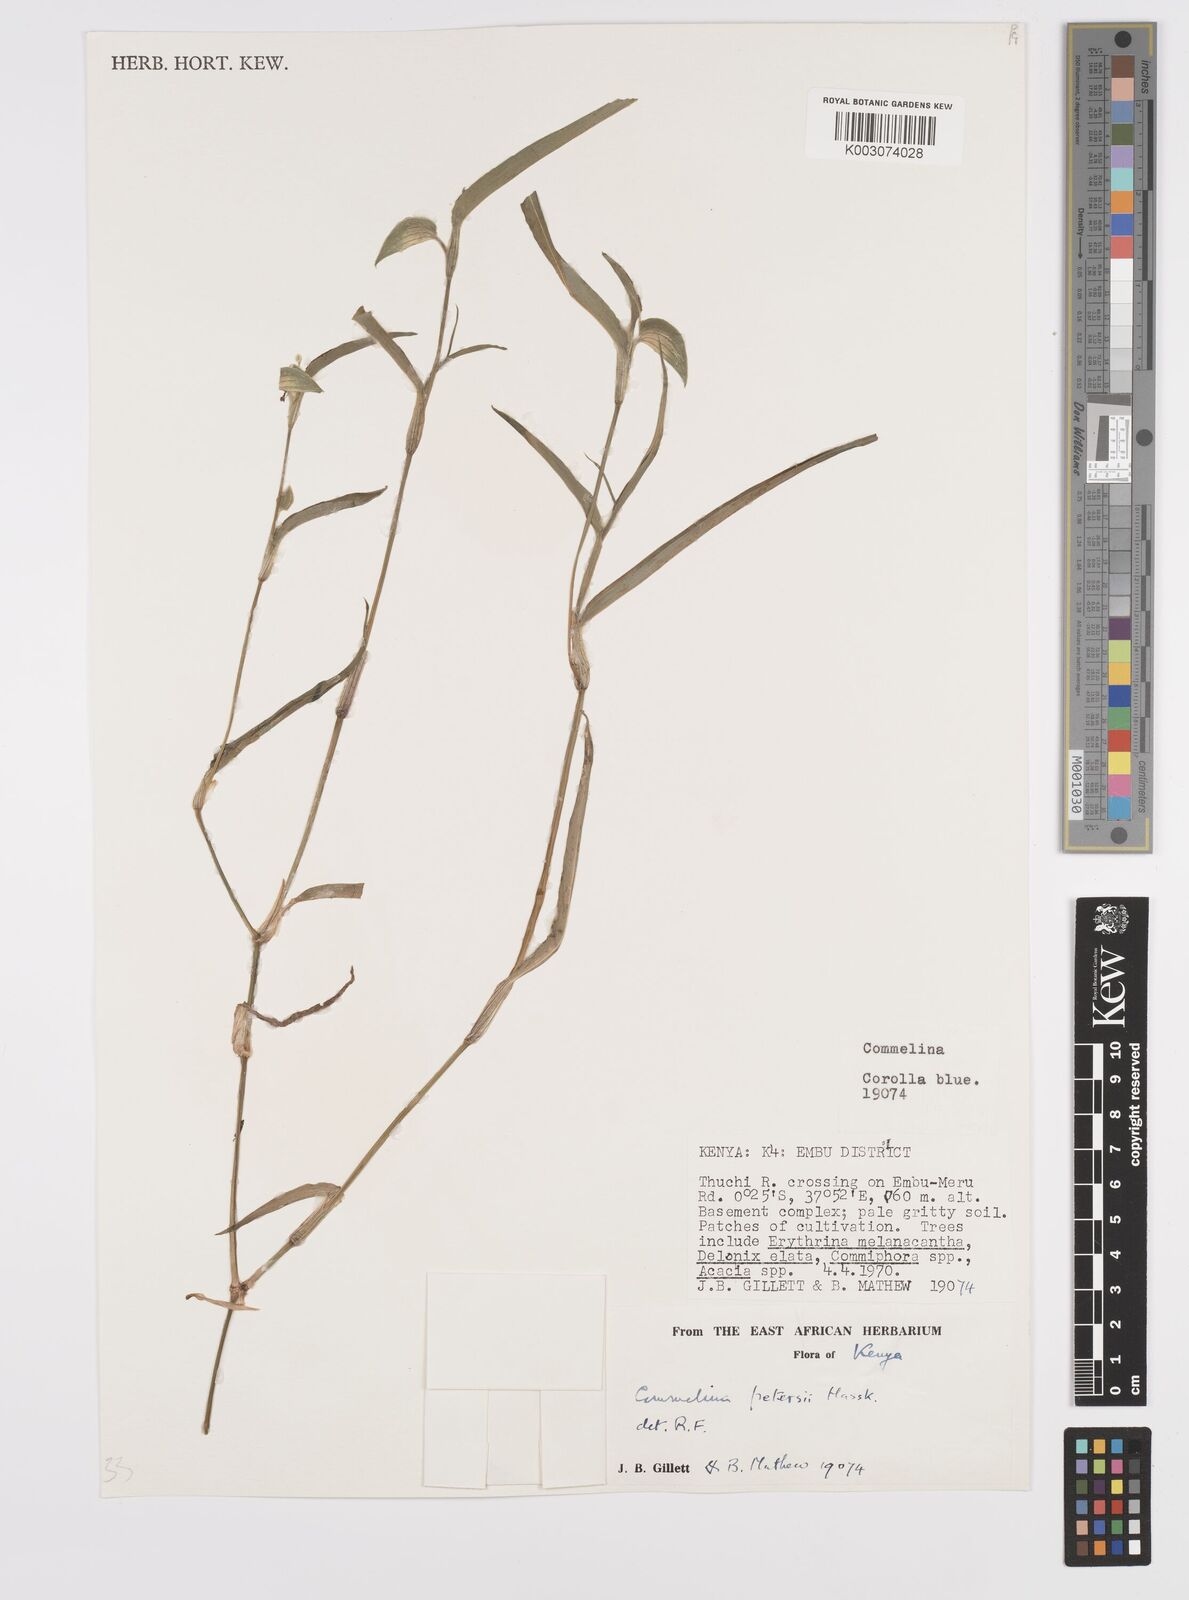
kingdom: Plantae
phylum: Tracheophyta
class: Liliopsida
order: Commelinales
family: Commelinaceae
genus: Commelina
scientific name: Commelina petersii
